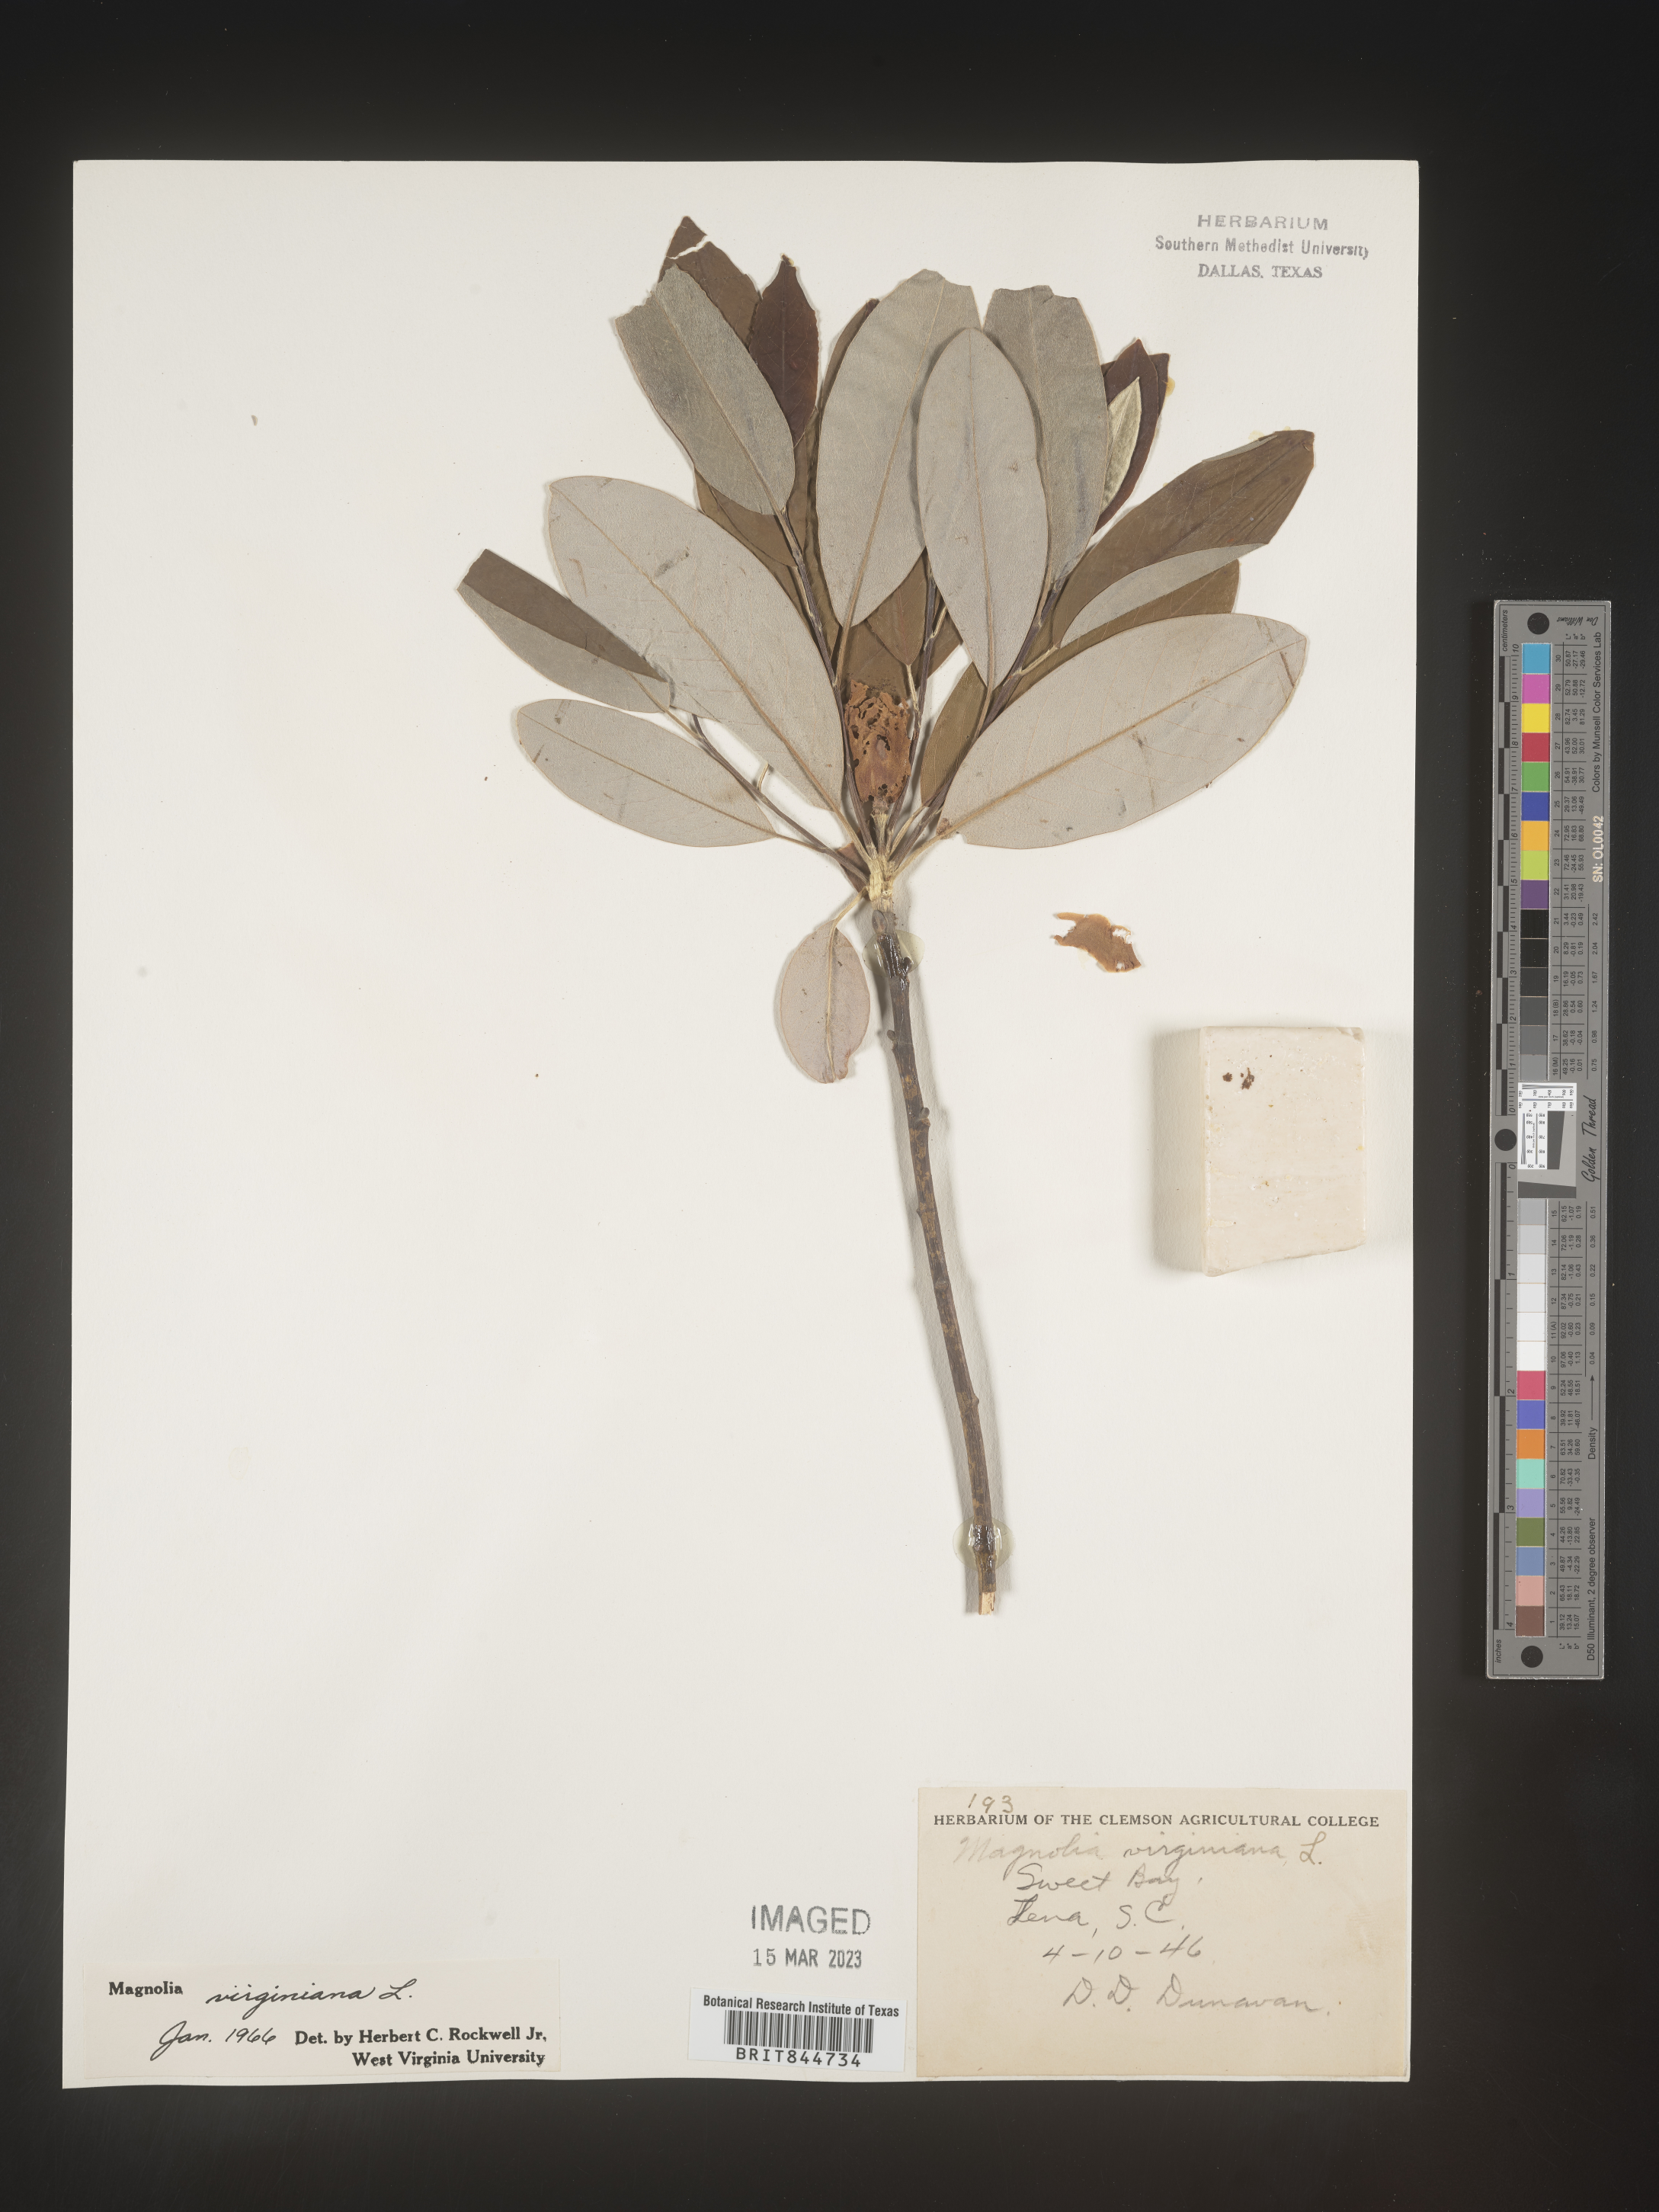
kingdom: Plantae
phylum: Tracheophyta
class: Magnoliopsida
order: Magnoliales
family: Magnoliaceae
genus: Magnolia
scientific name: Magnolia virginiana
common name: Swamp bay
